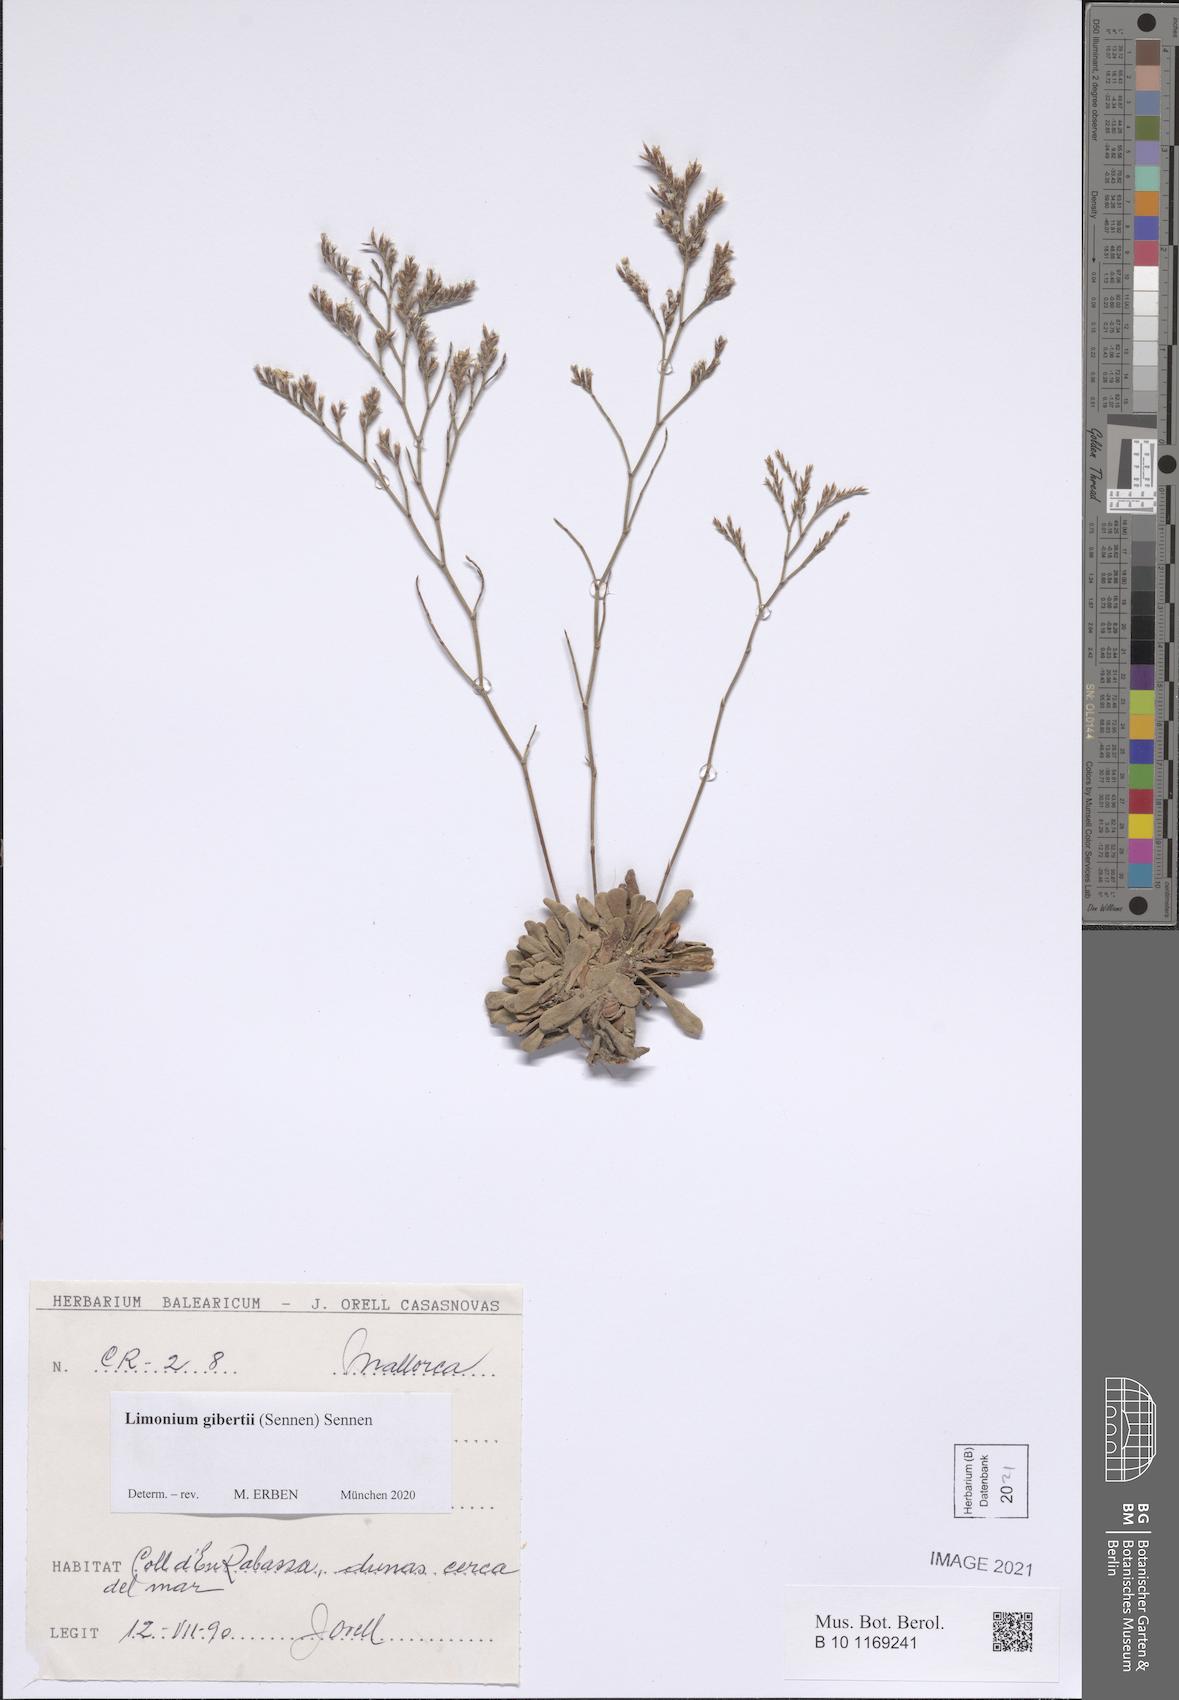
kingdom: Plantae
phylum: Tracheophyta
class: Magnoliopsida
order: Caryophyllales
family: Plumbaginaceae
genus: Limonium
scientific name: Limonium gibertii
